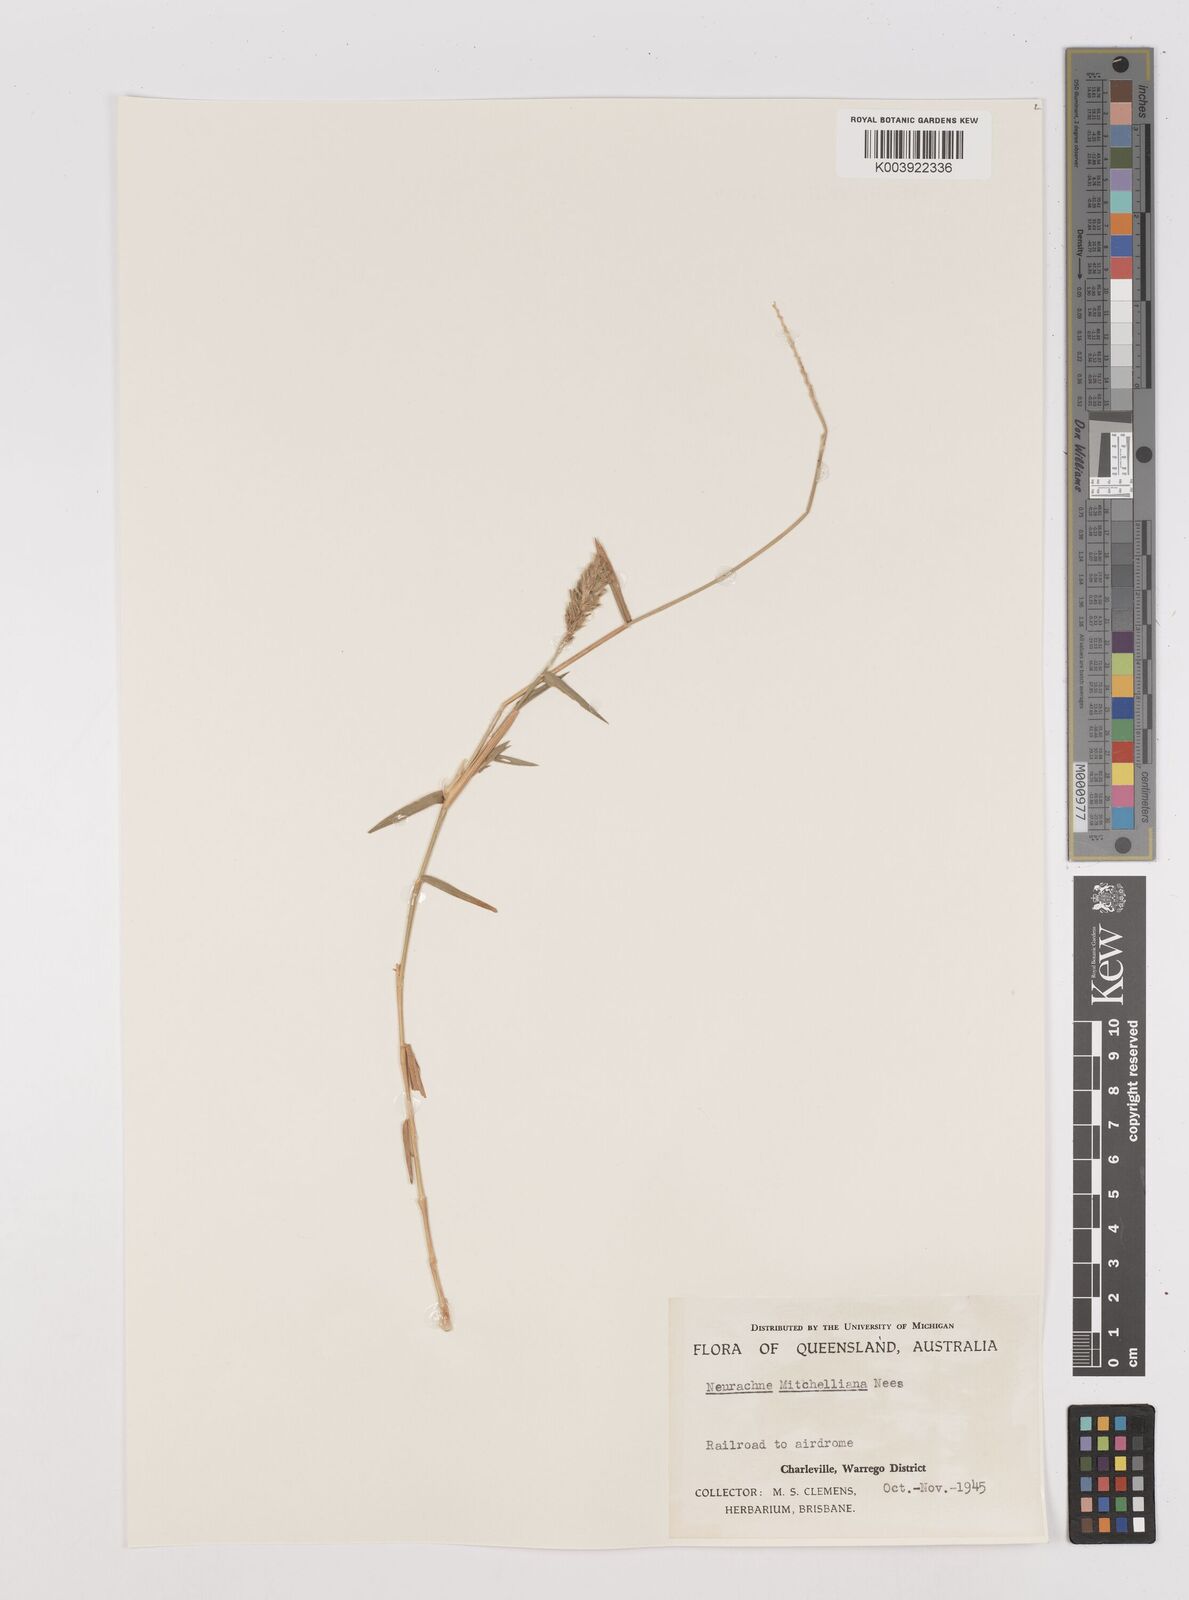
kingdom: Plantae
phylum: Tracheophyta
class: Liliopsida
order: Poales
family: Poaceae
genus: Thyridolepis
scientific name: Thyridolepis mitchelliana
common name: Rock tassel grass
